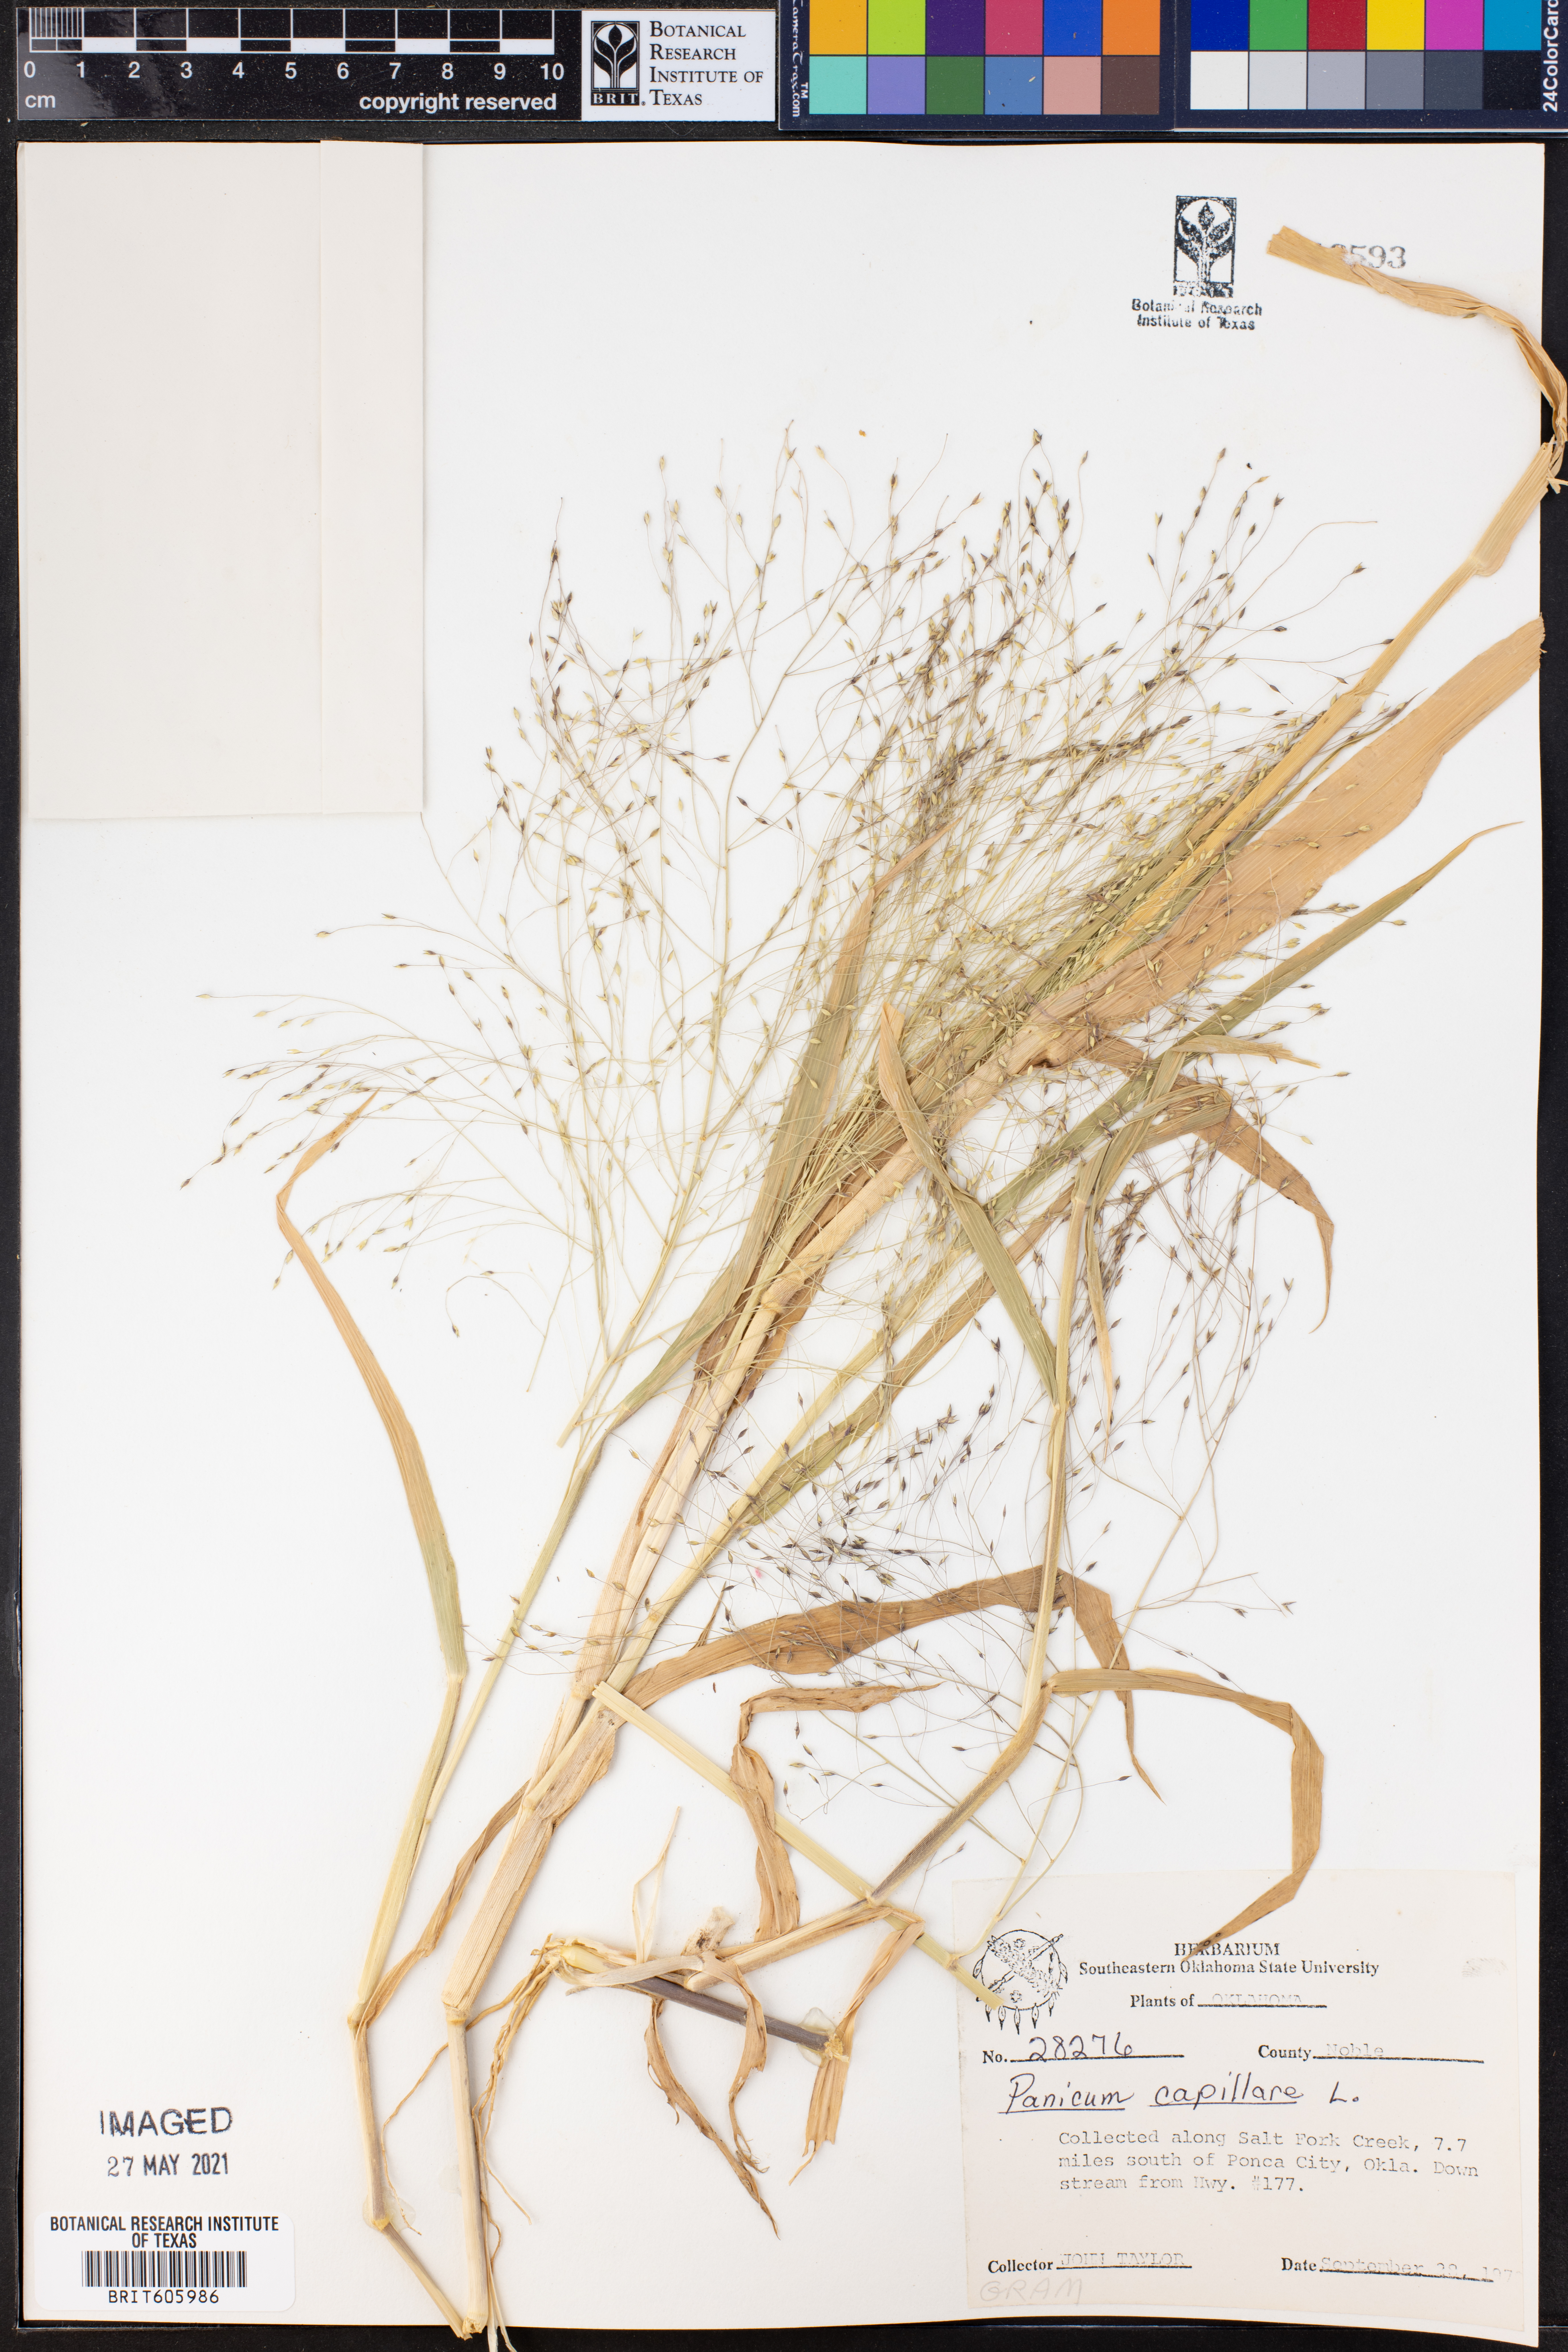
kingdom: Plantae
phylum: Tracheophyta
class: Liliopsida
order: Poales
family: Poaceae
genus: Panicum
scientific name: Panicum capillare
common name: Witch-grass
